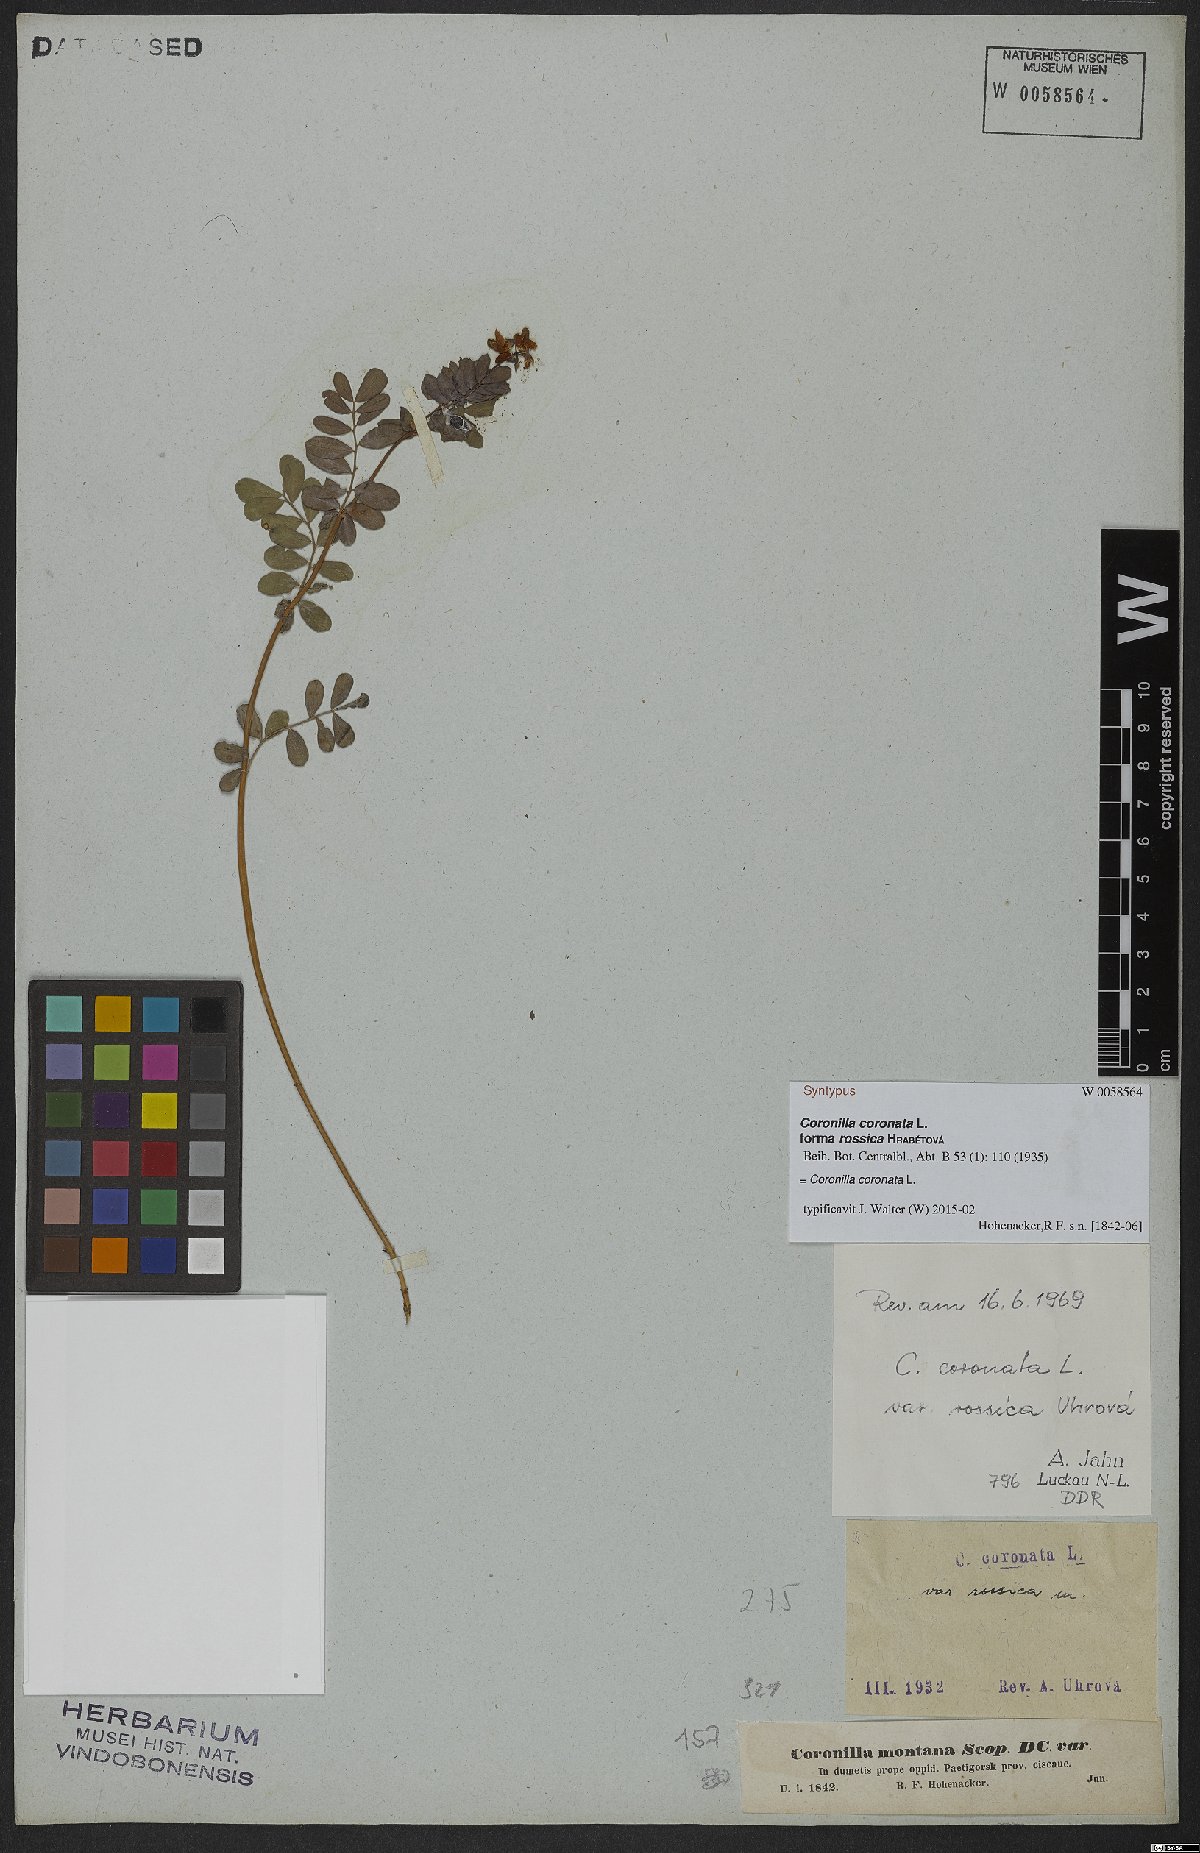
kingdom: Plantae
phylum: Tracheophyta
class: Magnoliopsida
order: Fabales
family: Fabaceae
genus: Coronilla
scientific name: Coronilla coronata
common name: Scorpion-vetch
